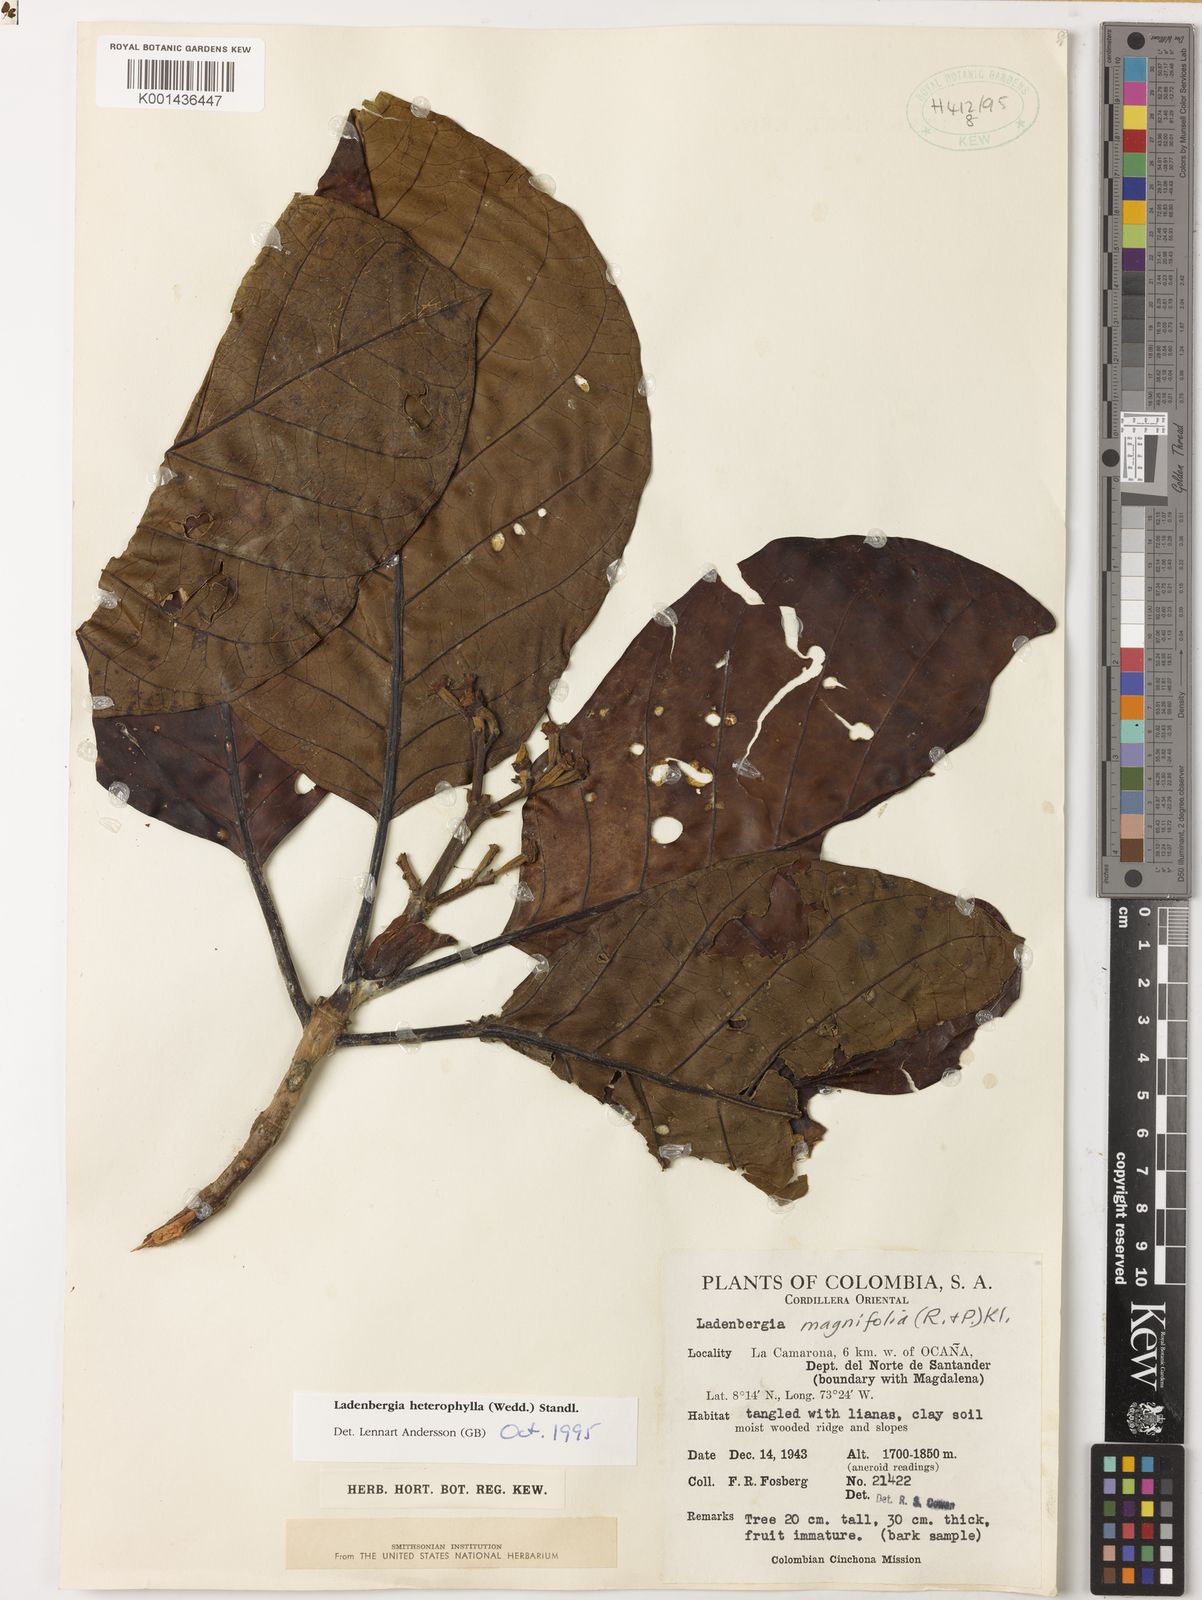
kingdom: Plantae
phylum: Tracheophyta
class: Magnoliopsida
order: Gentianales
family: Rubiaceae
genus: Ladenbergia
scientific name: Ladenbergia heterophylla
